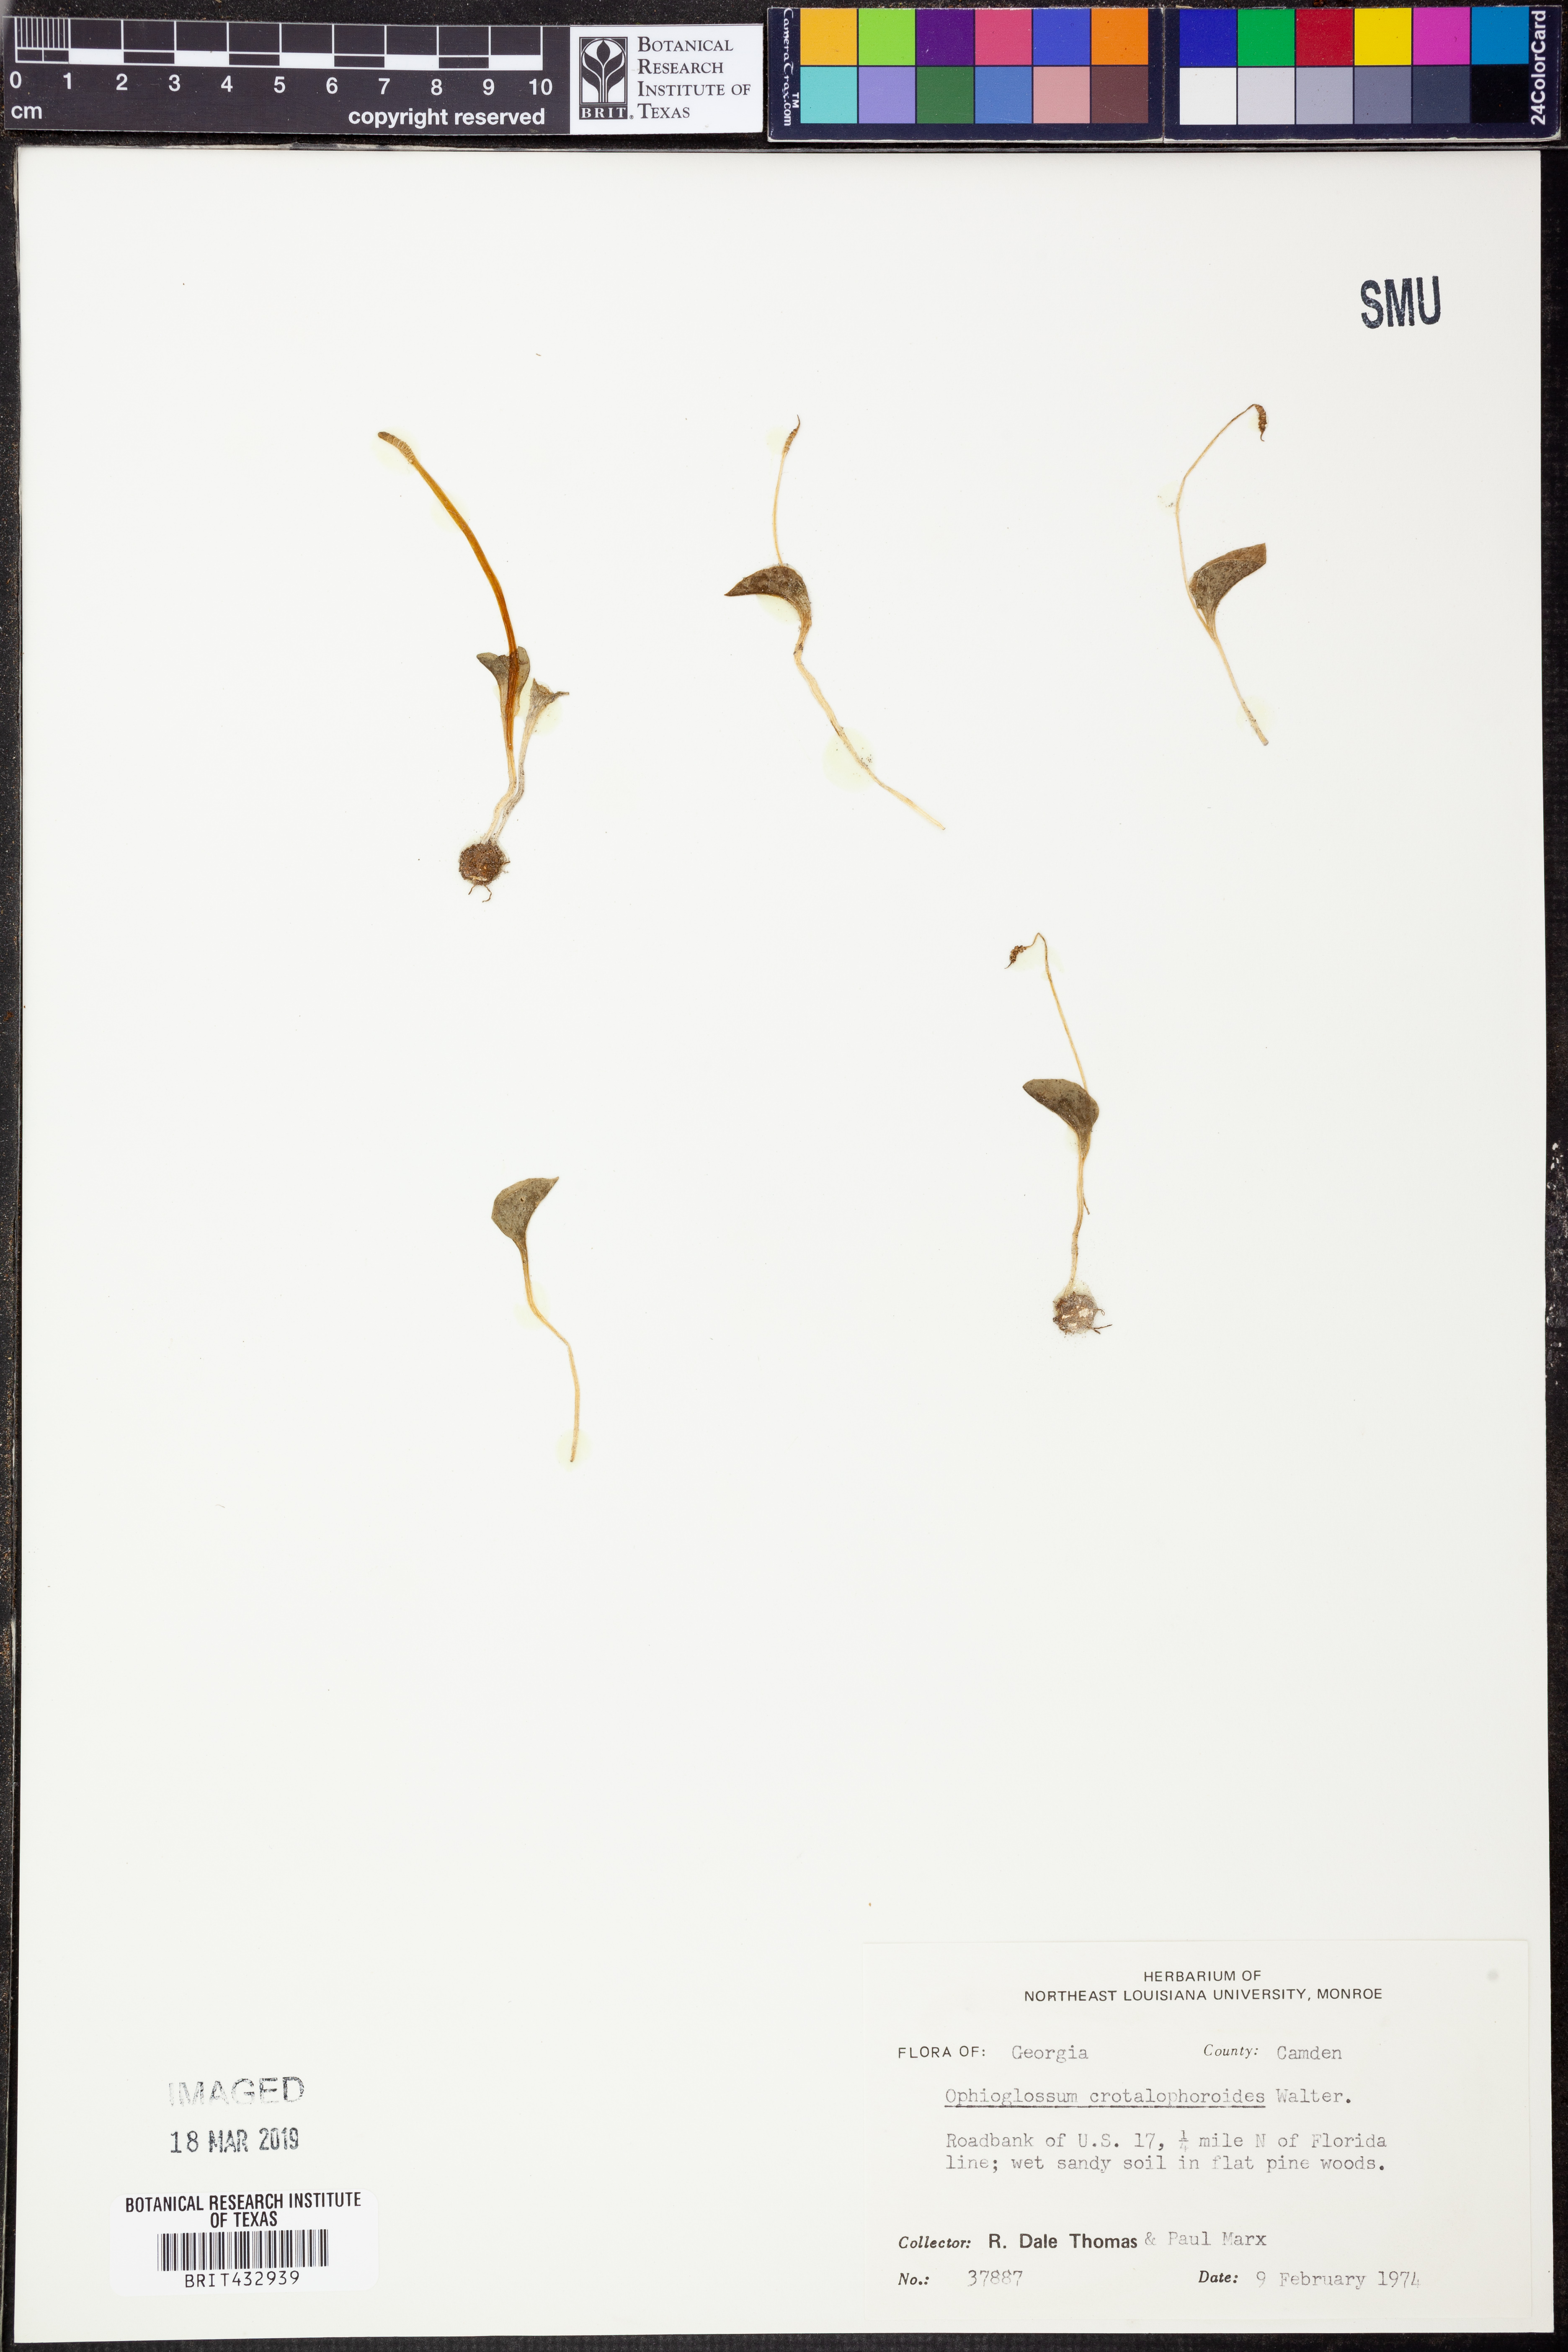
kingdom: Plantae
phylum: Tracheophyta
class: Polypodiopsida
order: Ophioglossales
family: Ophioglossaceae
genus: Ophioglossum
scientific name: Ophioglossum crotalophoroides
